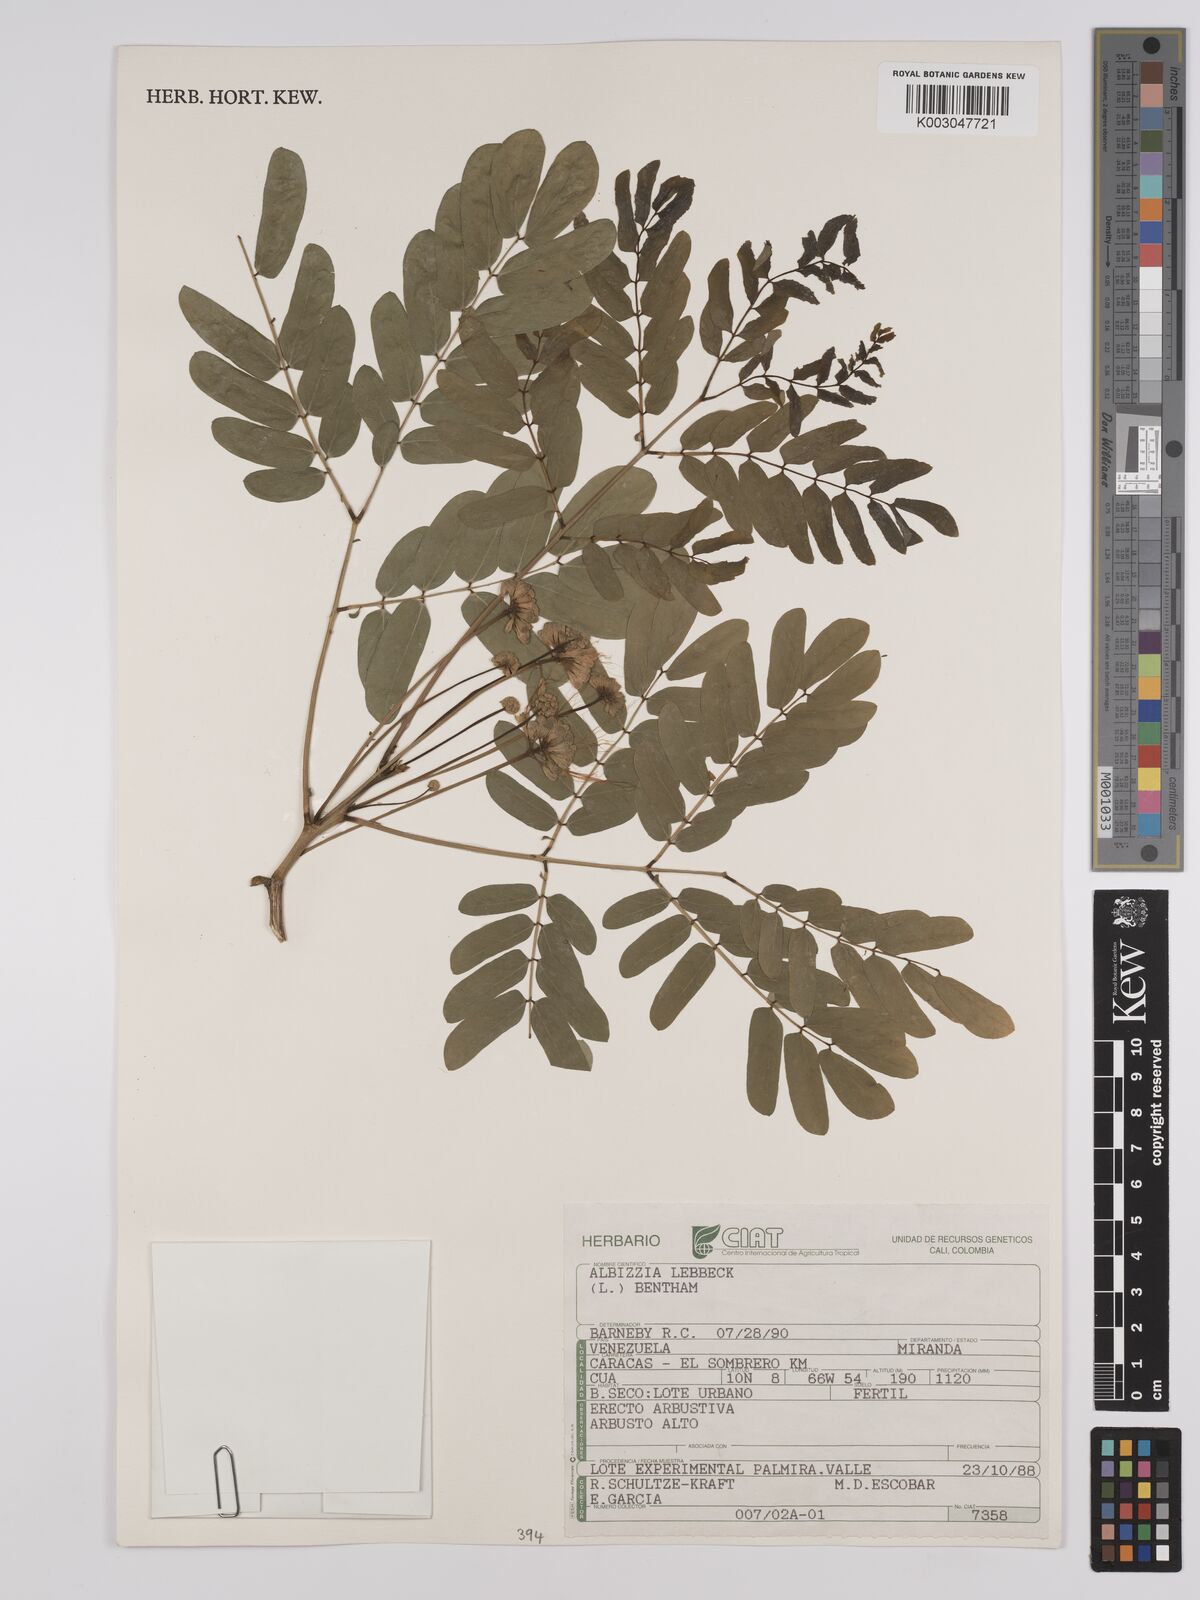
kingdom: Plantae
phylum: Tracheophyta
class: Magnoliopsida
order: Fabales
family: Fabaceae
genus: Albizia
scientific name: Albizia lebbeck
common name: Woman's tongue
